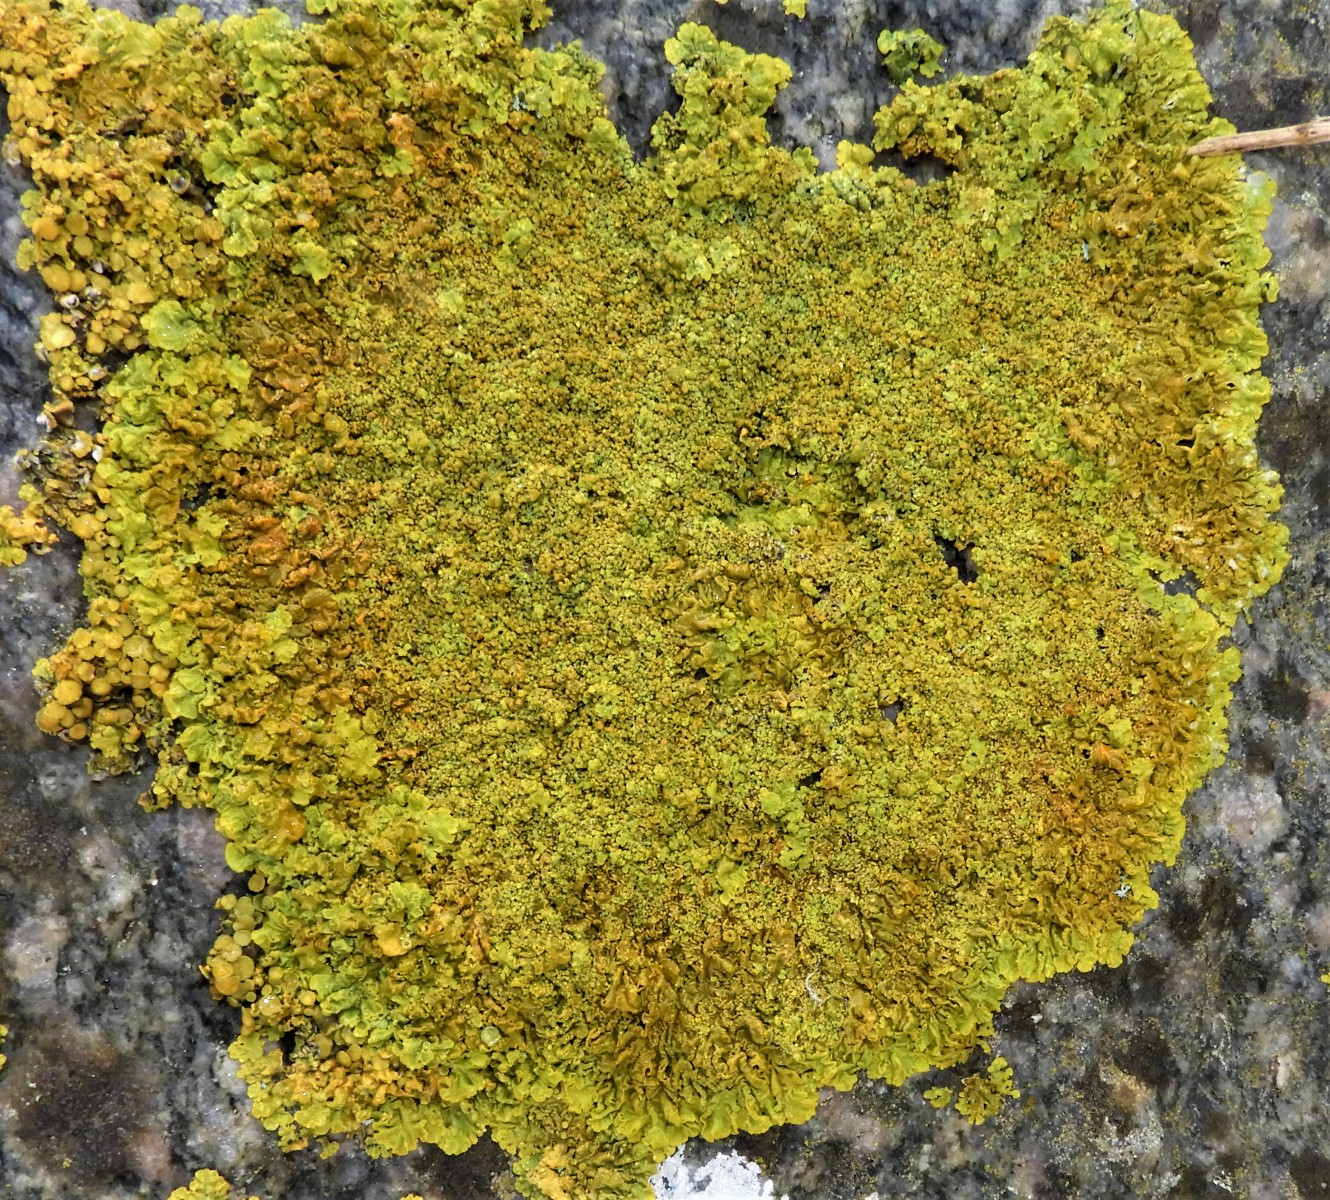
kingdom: Fungi
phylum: Ascomycota
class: Lecanoromycetes
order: Teloschistales
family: Teloschistaceae
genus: Xanthoria
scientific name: Xanthoria calcicola
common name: vortet væggelav
